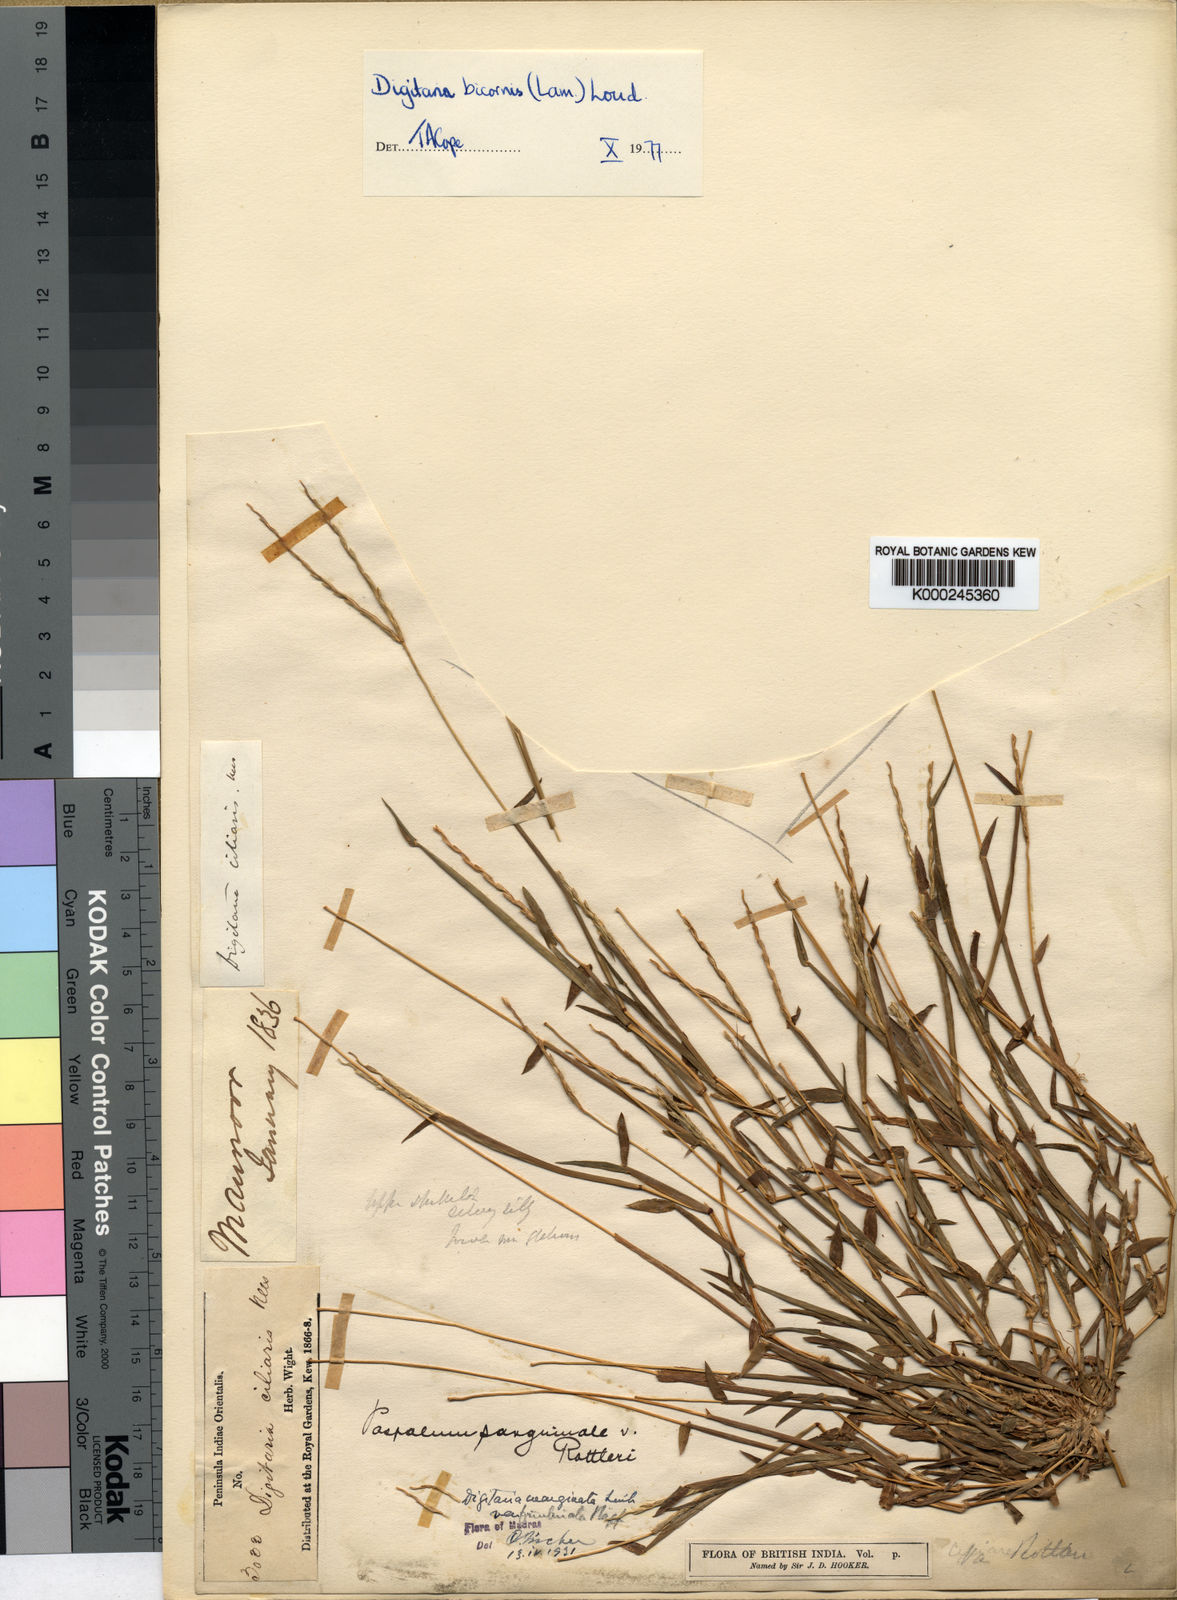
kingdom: Plantae
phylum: Tracheophyta
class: Liliopsida
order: Poales
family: Poaceae
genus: Digitaria
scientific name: Digitaria bicornis
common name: Asian crabgrass
